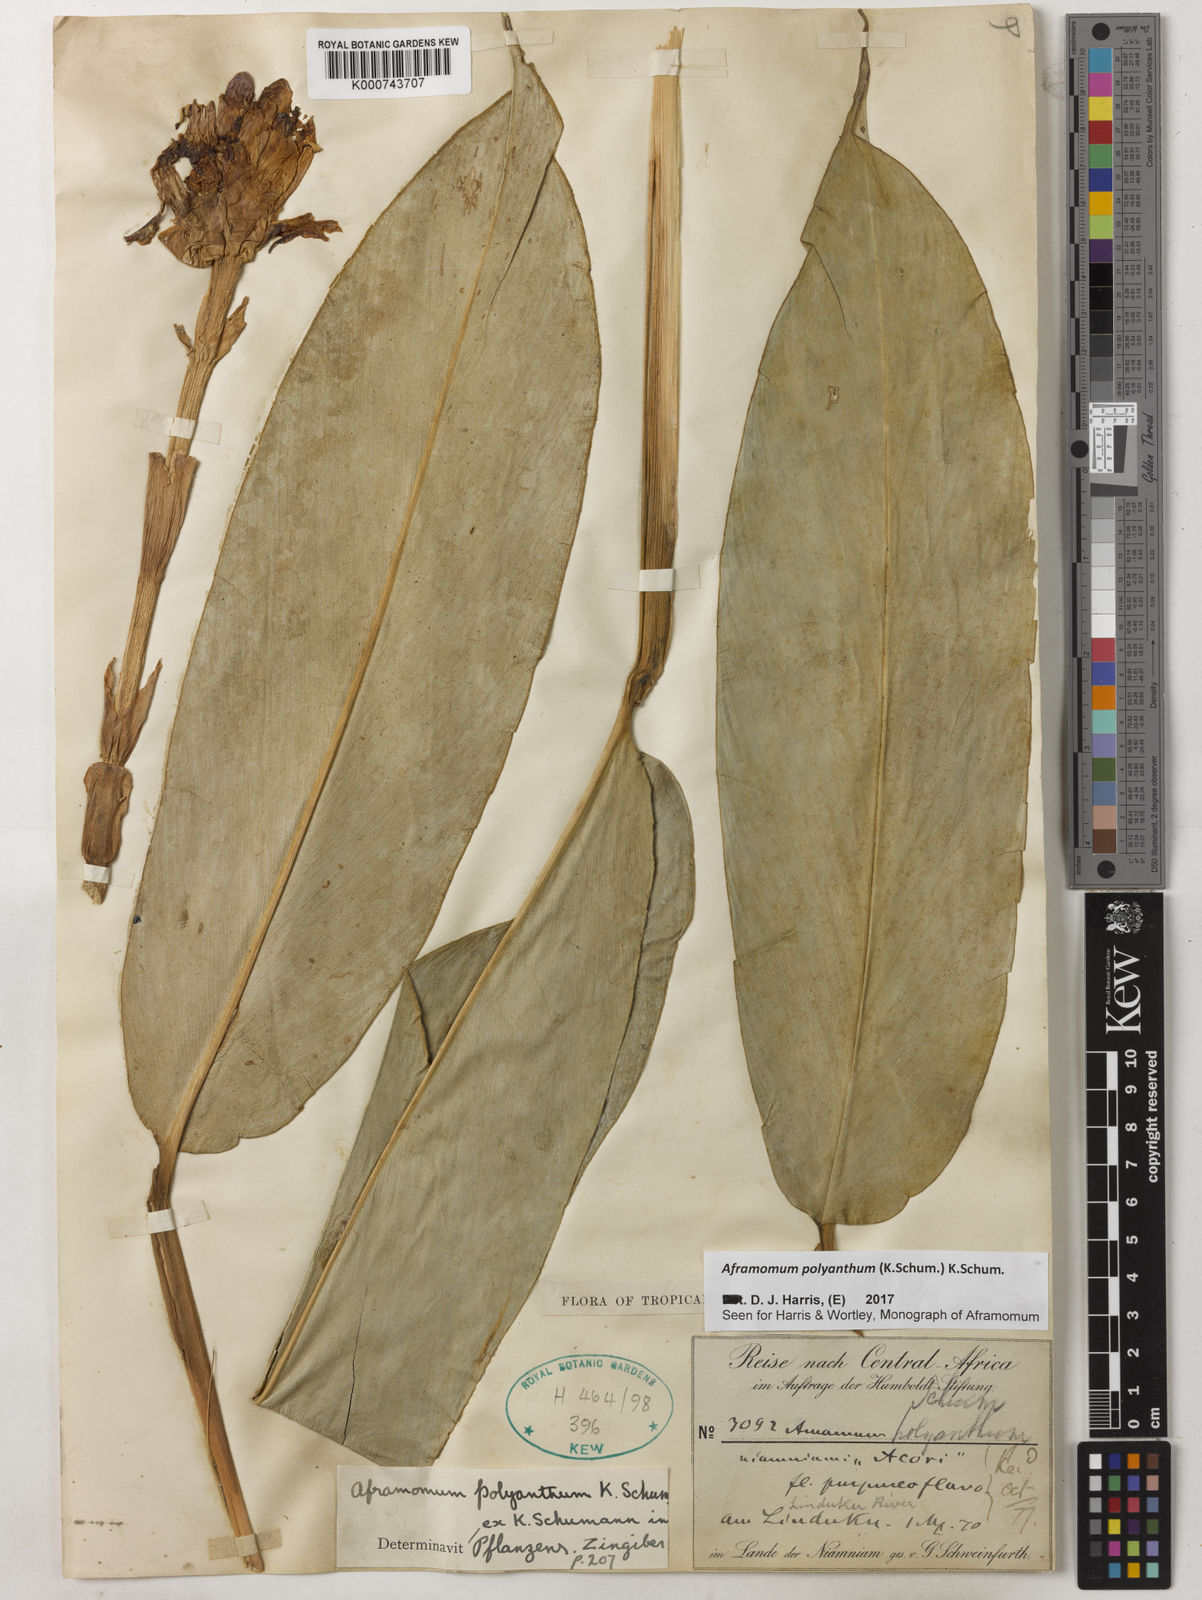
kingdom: Plantae
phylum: Tracheophyta
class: Liliopsida
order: Zingiberales
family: Zingiberaceae
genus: Aframomum
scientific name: Aframomum polyanthum
